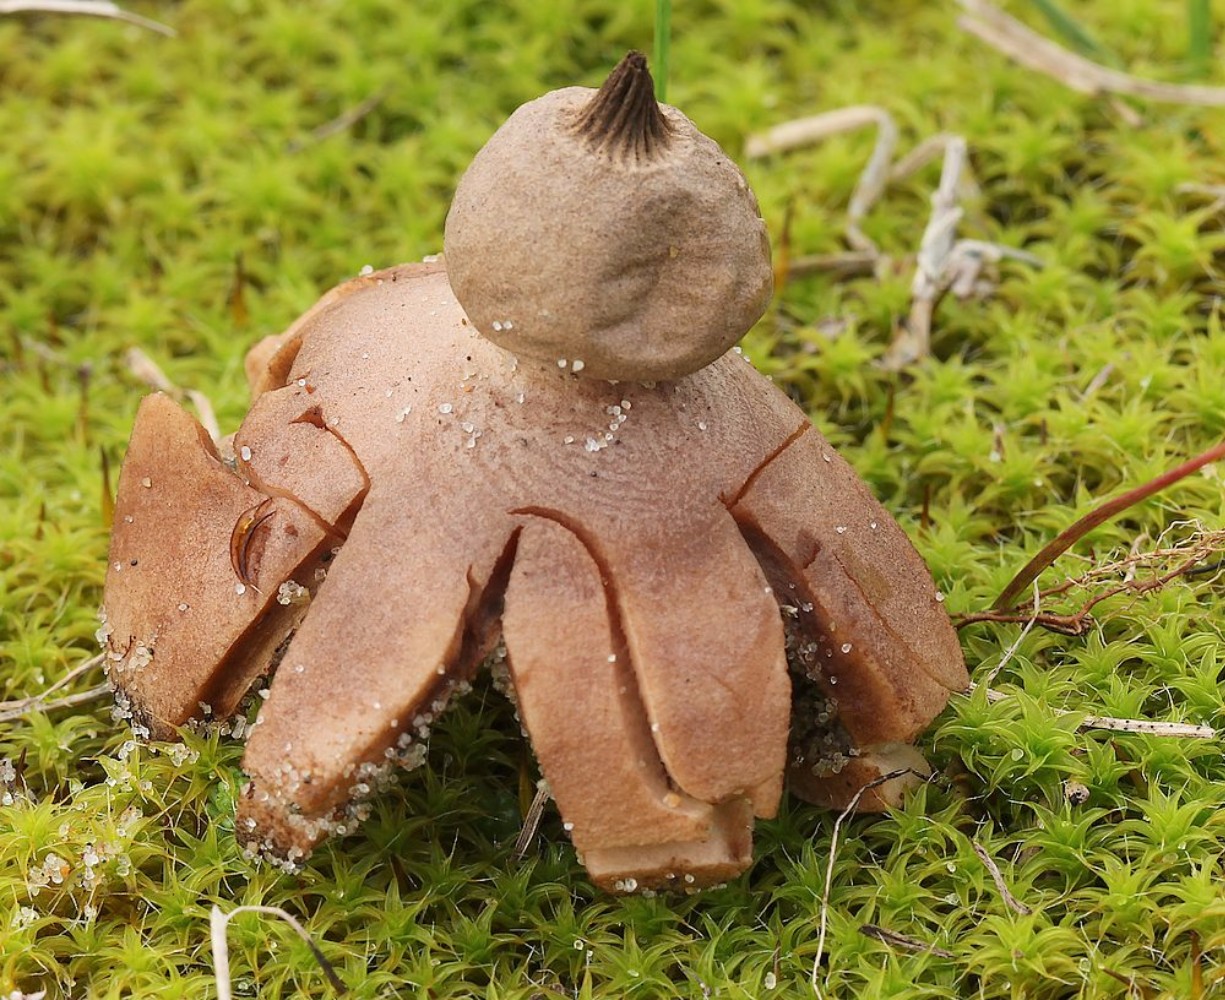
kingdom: Fungi
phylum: Basidiomycota
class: Agaricomycetes
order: Geastrales
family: Geastraceae
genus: Geastrum
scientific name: Geastrum striatum
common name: dværg-stjernebold
